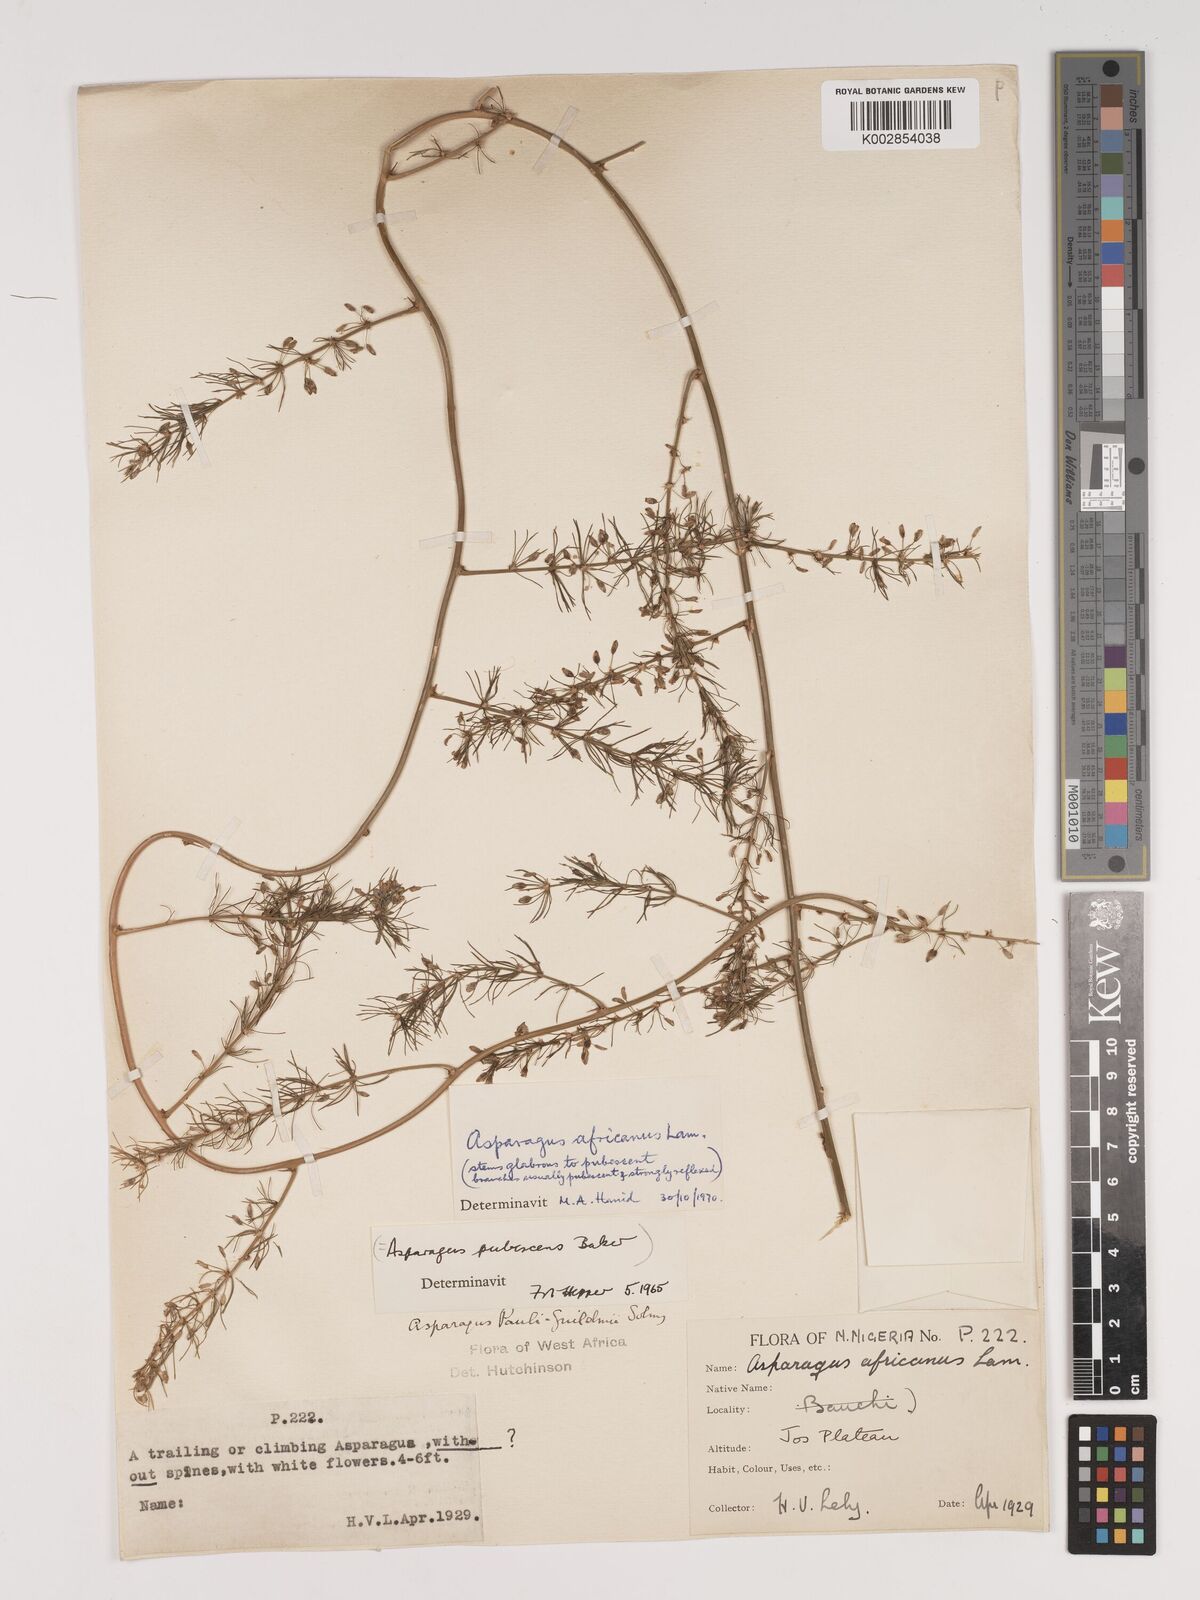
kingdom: Plantae
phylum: Tracheophyta
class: Liliopsida
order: Asparagales
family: Asparagaceae
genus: Asparagus
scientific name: Asparagus africanus
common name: Asparagus-fern
